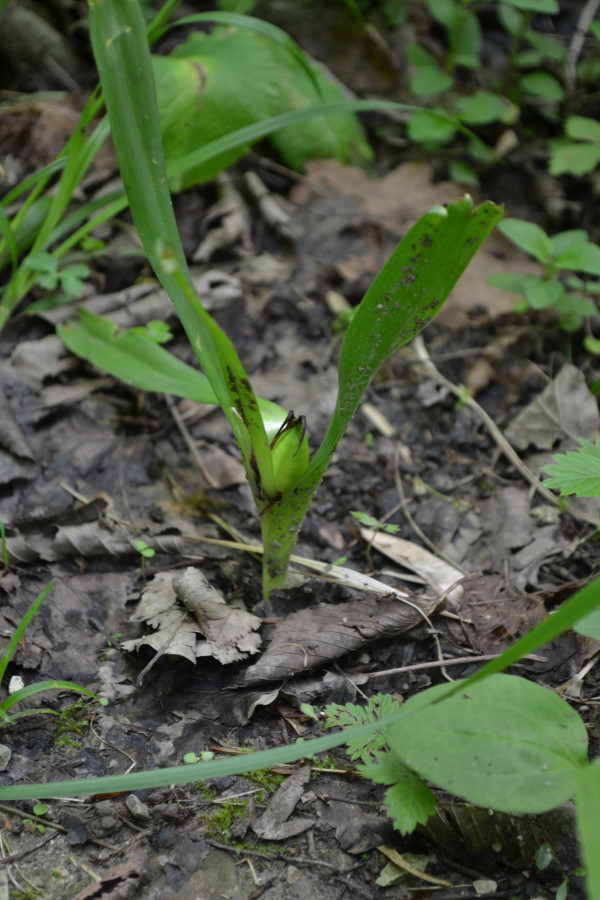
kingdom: Plantae
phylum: Tracheophyta
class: Liliopsida
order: Liliales
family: Colchicaceae
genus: Colchicum
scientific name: Colchicum umbrosum
